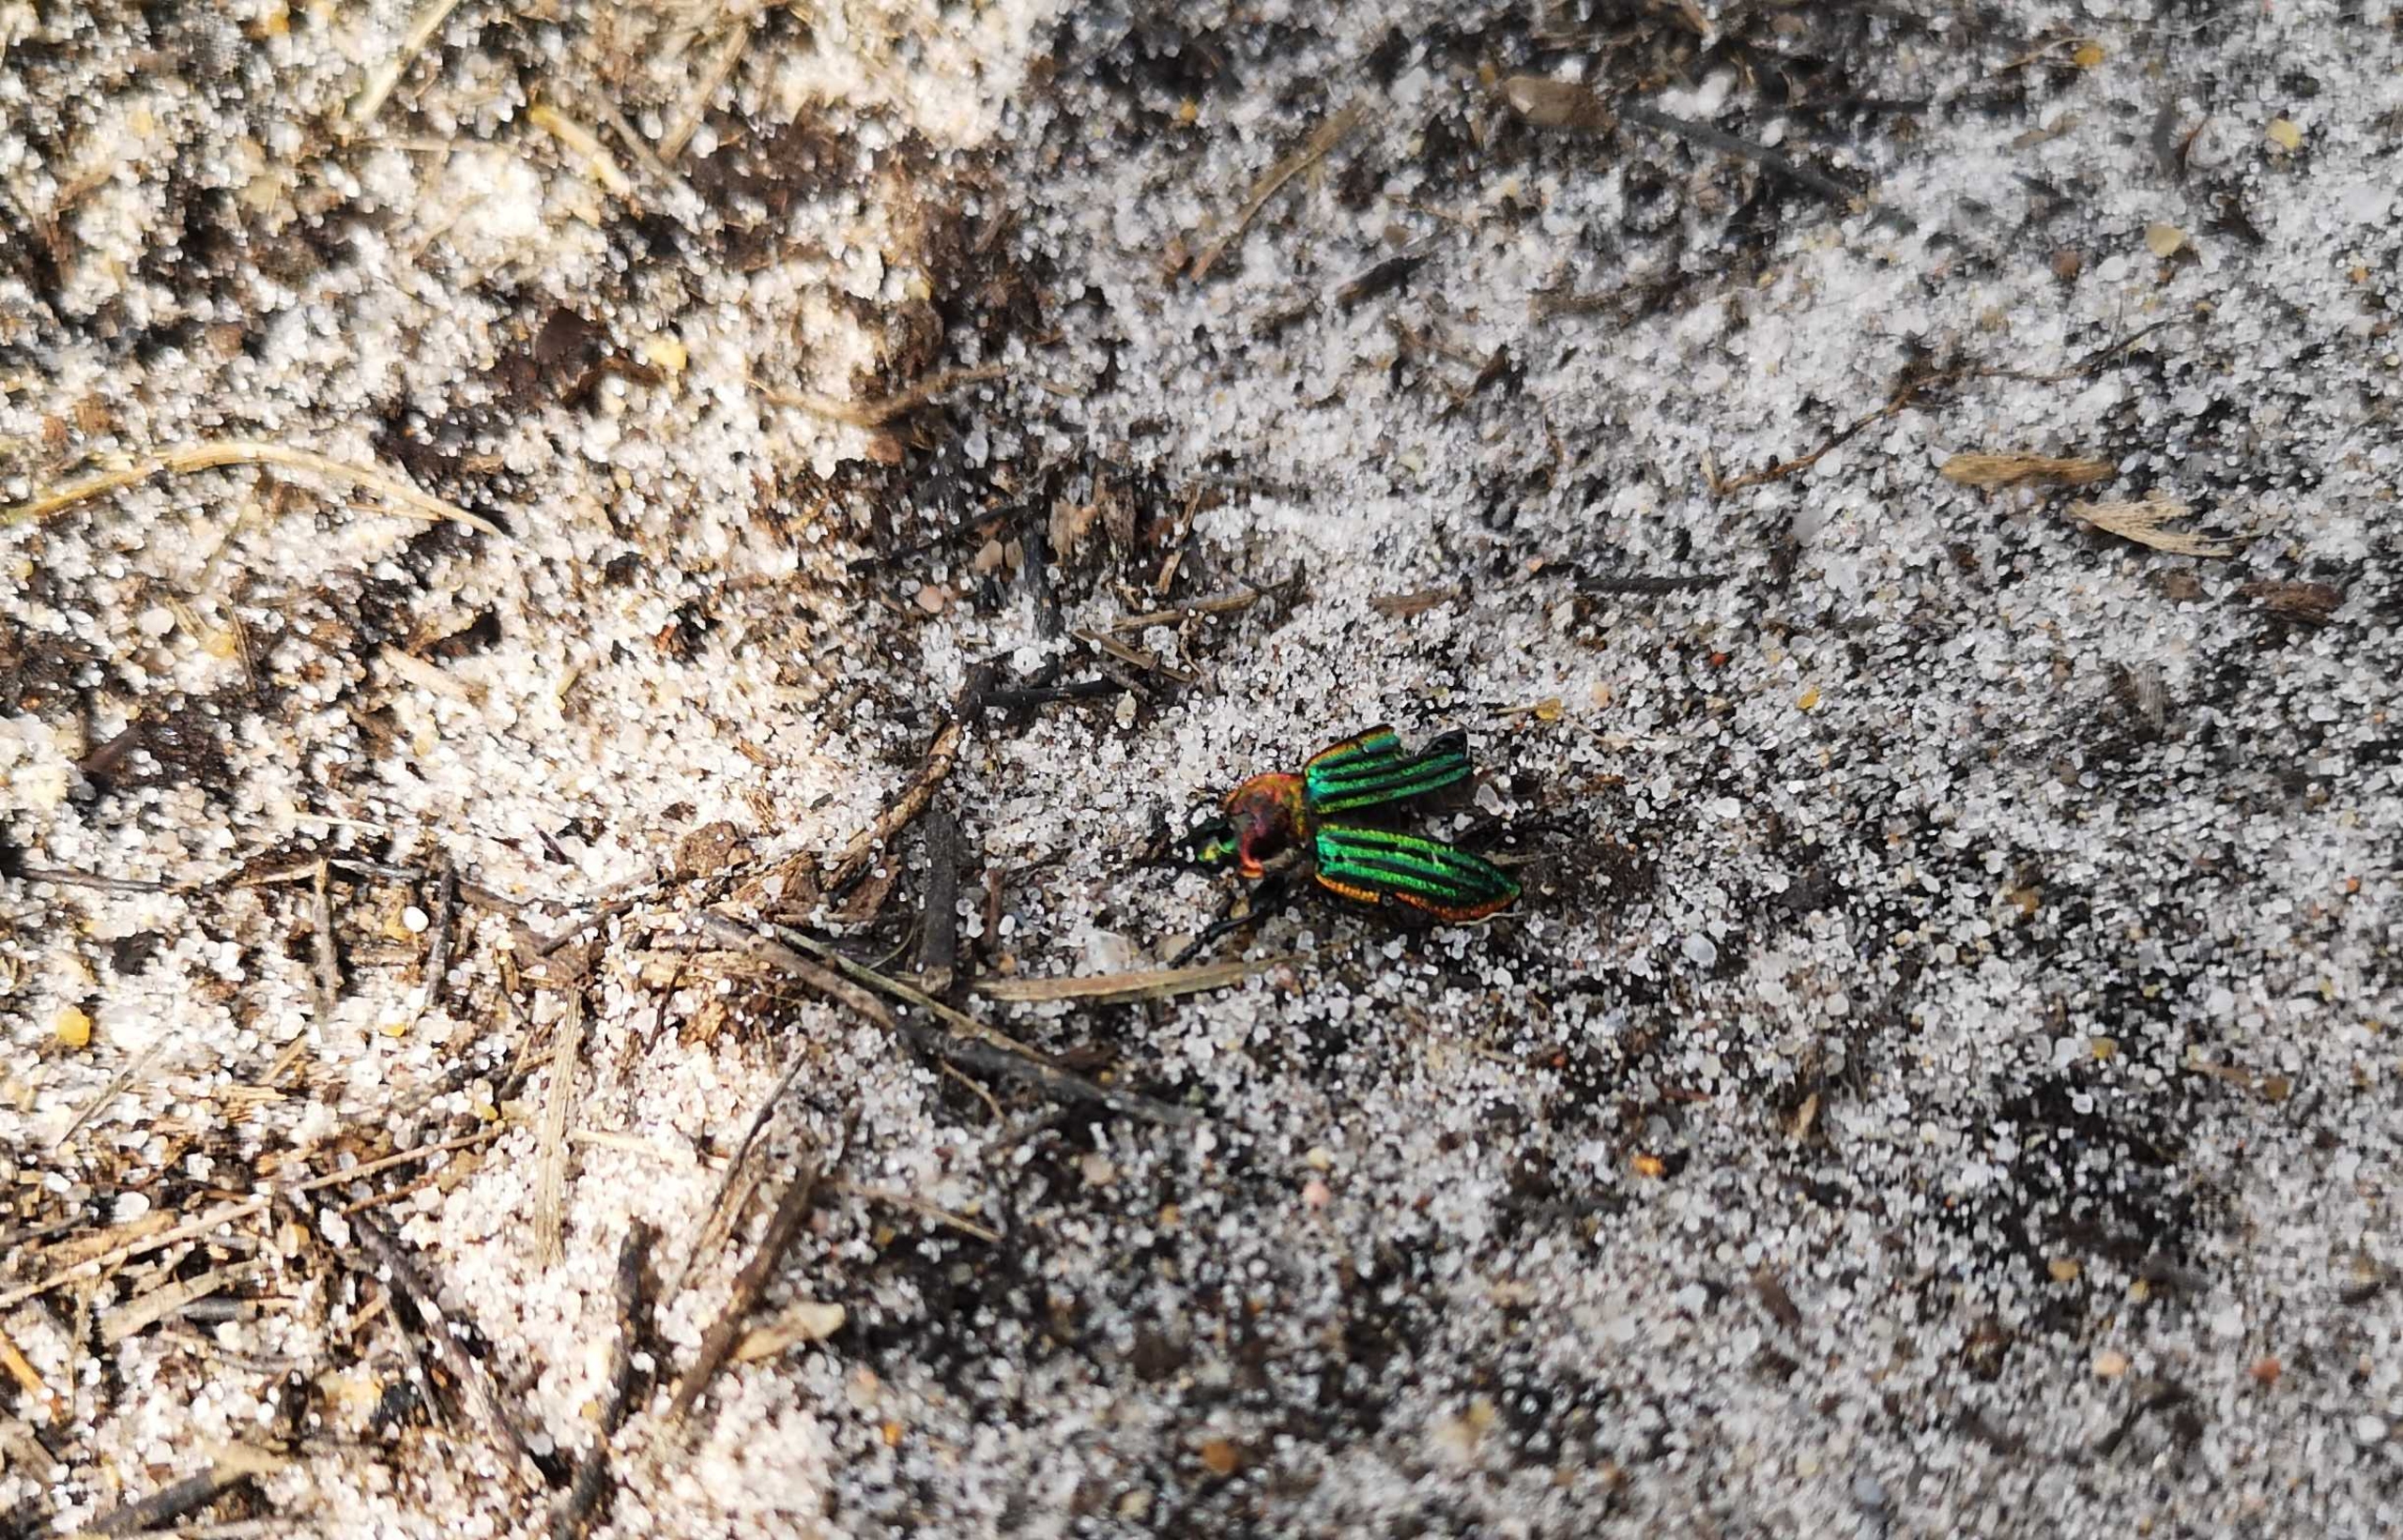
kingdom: Animalia
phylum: Arthropoda
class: Insecta
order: Coleoptera
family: Carabidae
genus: Carabus
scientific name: Carabus nitens
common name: Lille guldløber
